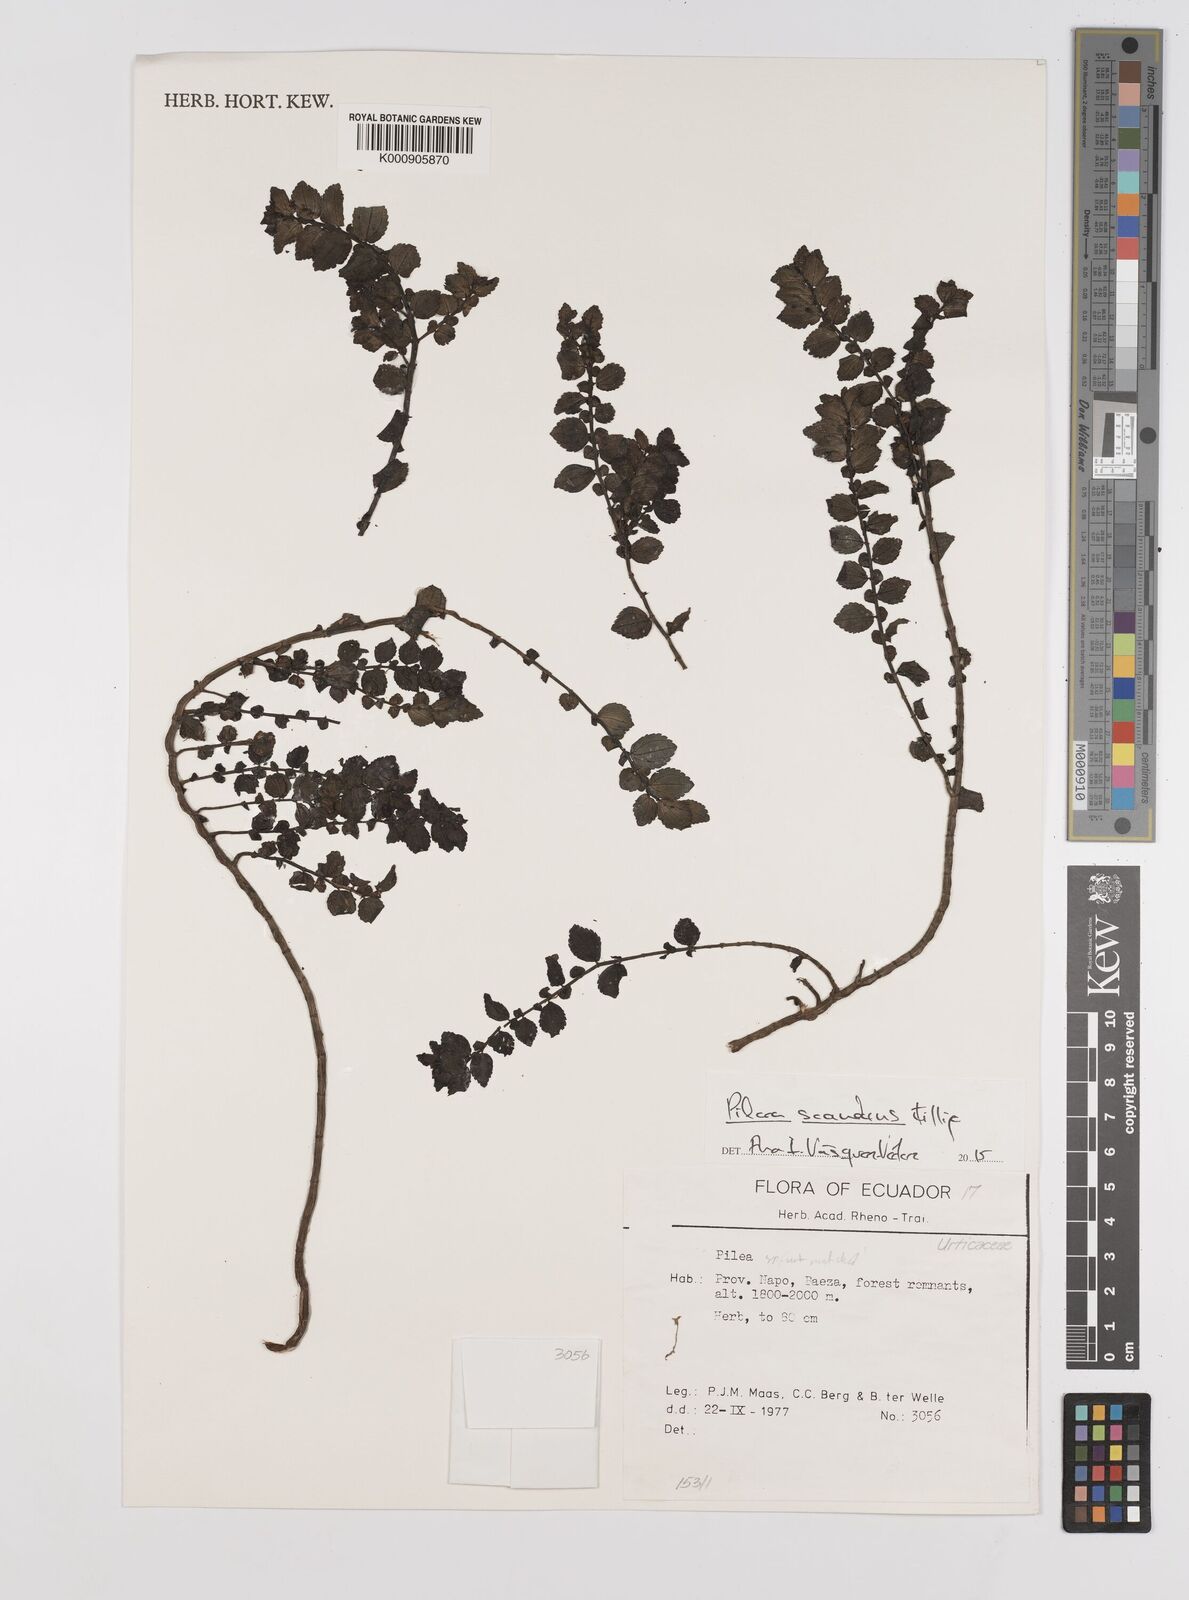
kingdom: Plantae
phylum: Tracheophyta
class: Magnoliopsida
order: Rosales
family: Urticaceae
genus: Pilea
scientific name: Pilea scandens
